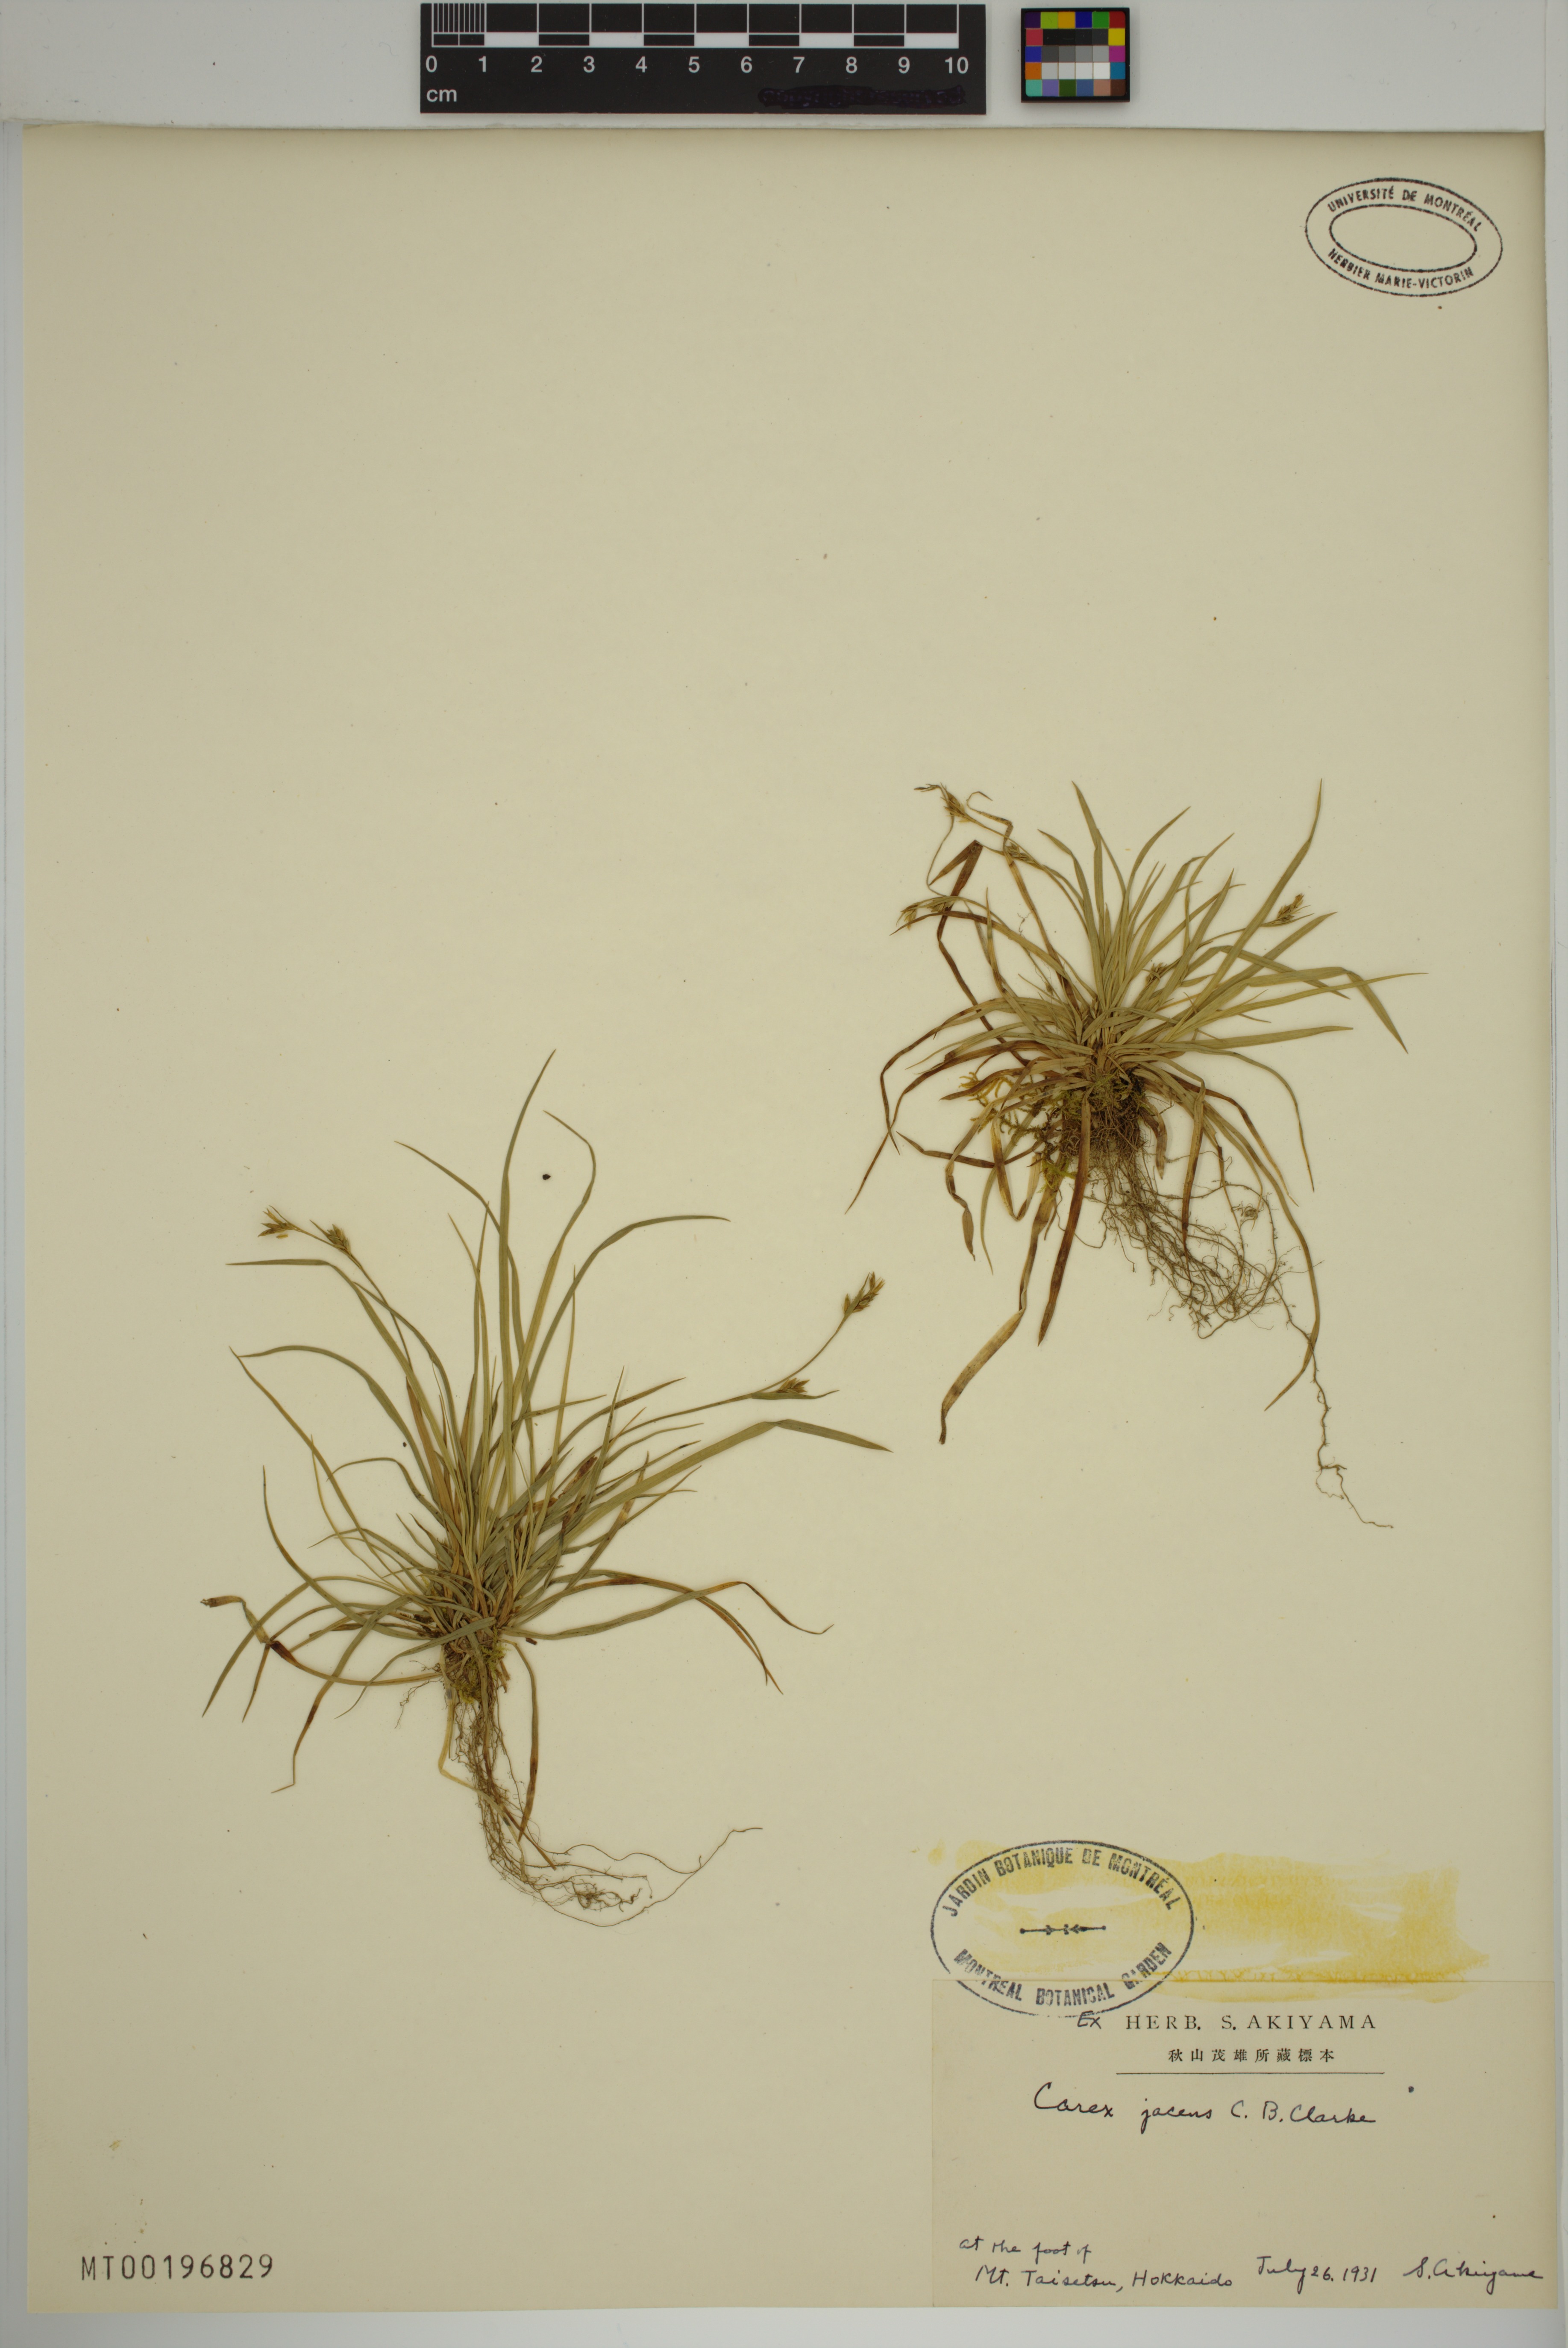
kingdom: Plantae
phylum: Tracheophyta
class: Liliopsida
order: Poales
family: Cyperaceae
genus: Carex
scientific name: Carex jacens
